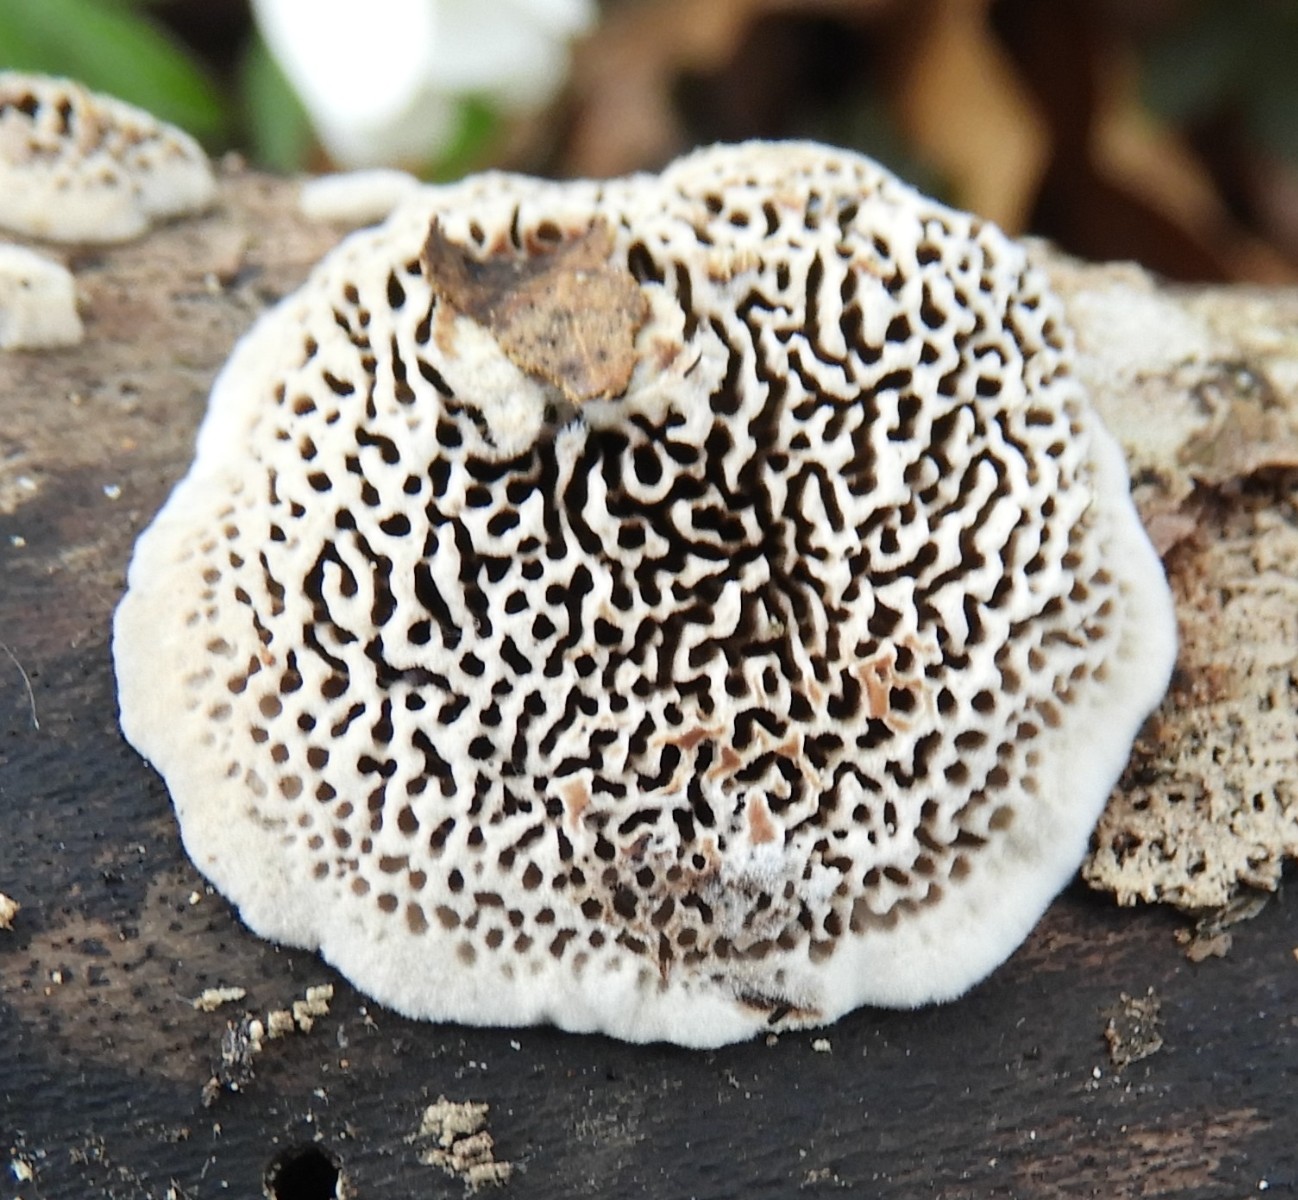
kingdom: Fungi
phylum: Basidiomycota
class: Agaricomycetes
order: Polyporales
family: Polyporaceae
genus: Podofomes
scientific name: Podofomes mollis
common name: blød begporesvamp
